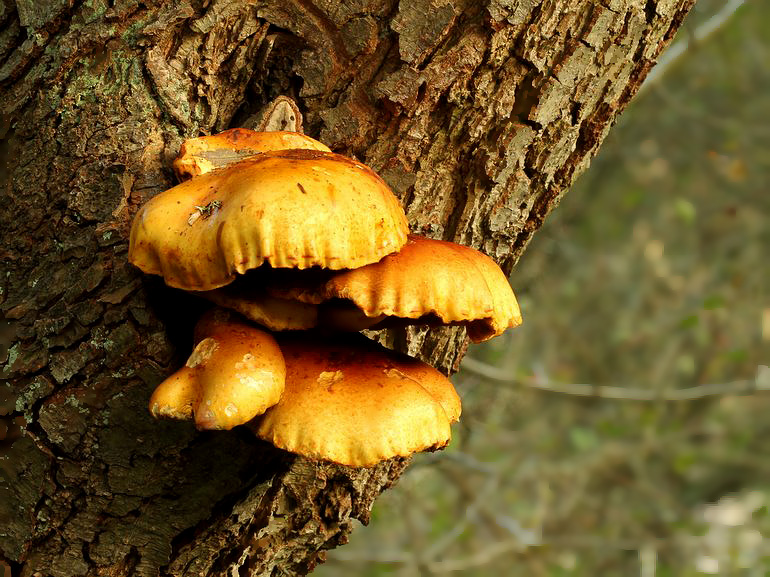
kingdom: Fungi
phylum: Basidiomycota
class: Agaricomycetes
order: Agaricales
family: Strophariaceae
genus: Pholiota
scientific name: Pholiota adiposa
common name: højtsiddende skælhat
